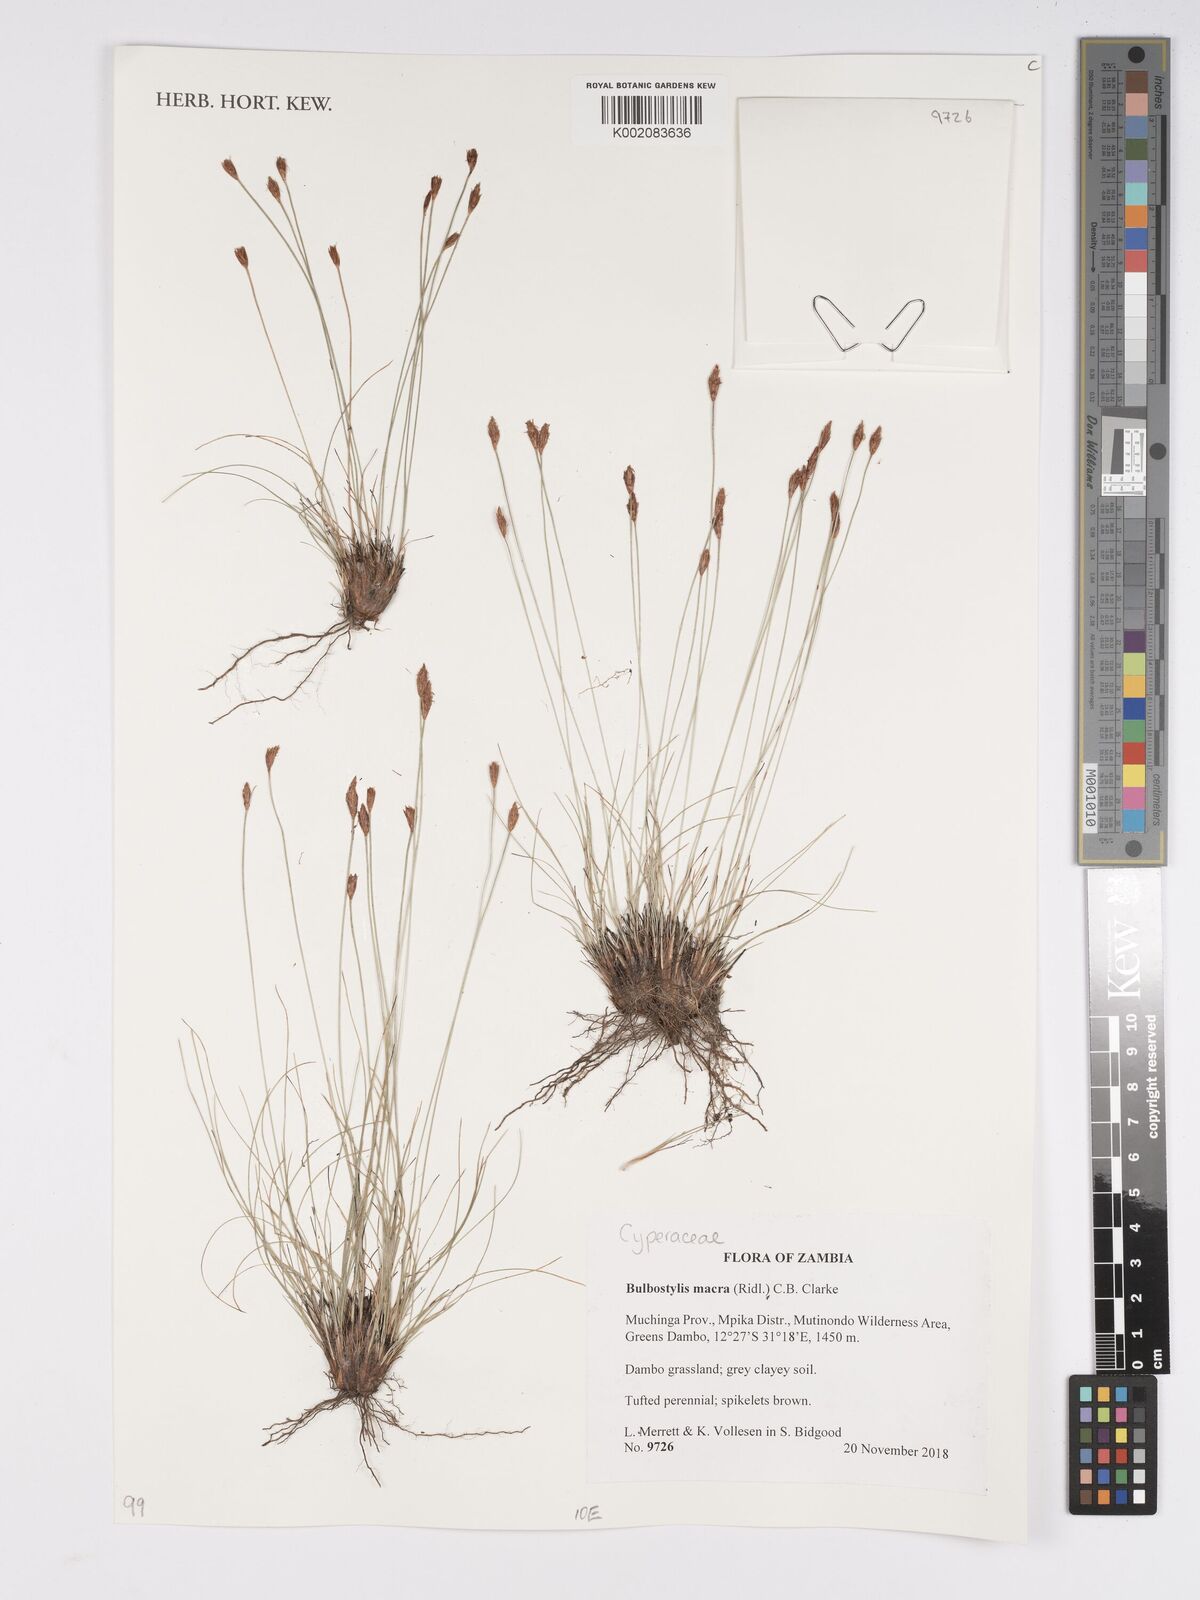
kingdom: Plantae
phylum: Tracheophyta
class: Liliopsida
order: Poales
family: Cyperaceae
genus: Bulbostylis
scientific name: Bulbostylis macra
